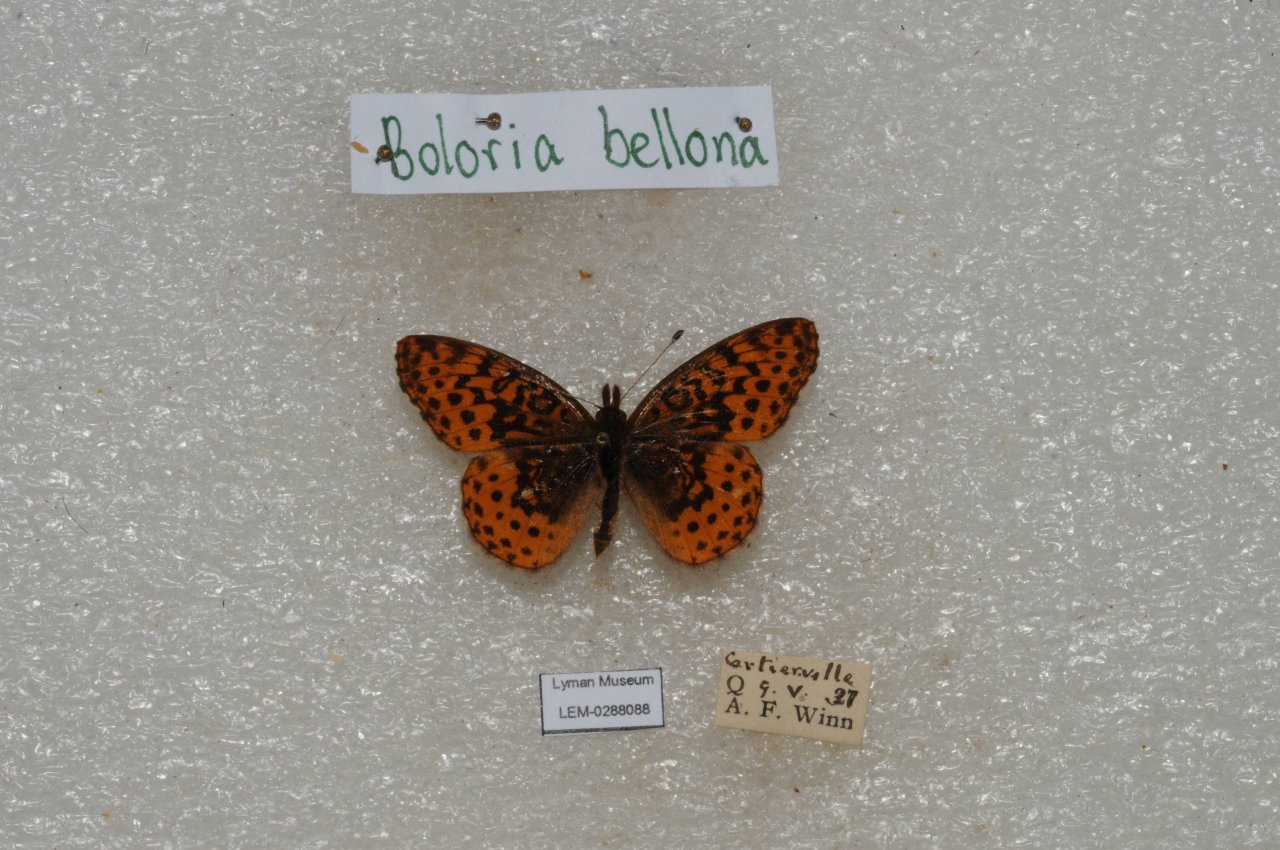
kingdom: Animalia
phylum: Arthropoda
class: Insecta
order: Lepidoptera
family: Nymphalidae
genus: Clossiana
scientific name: Clossiana toddi
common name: Meadow Fritillary
